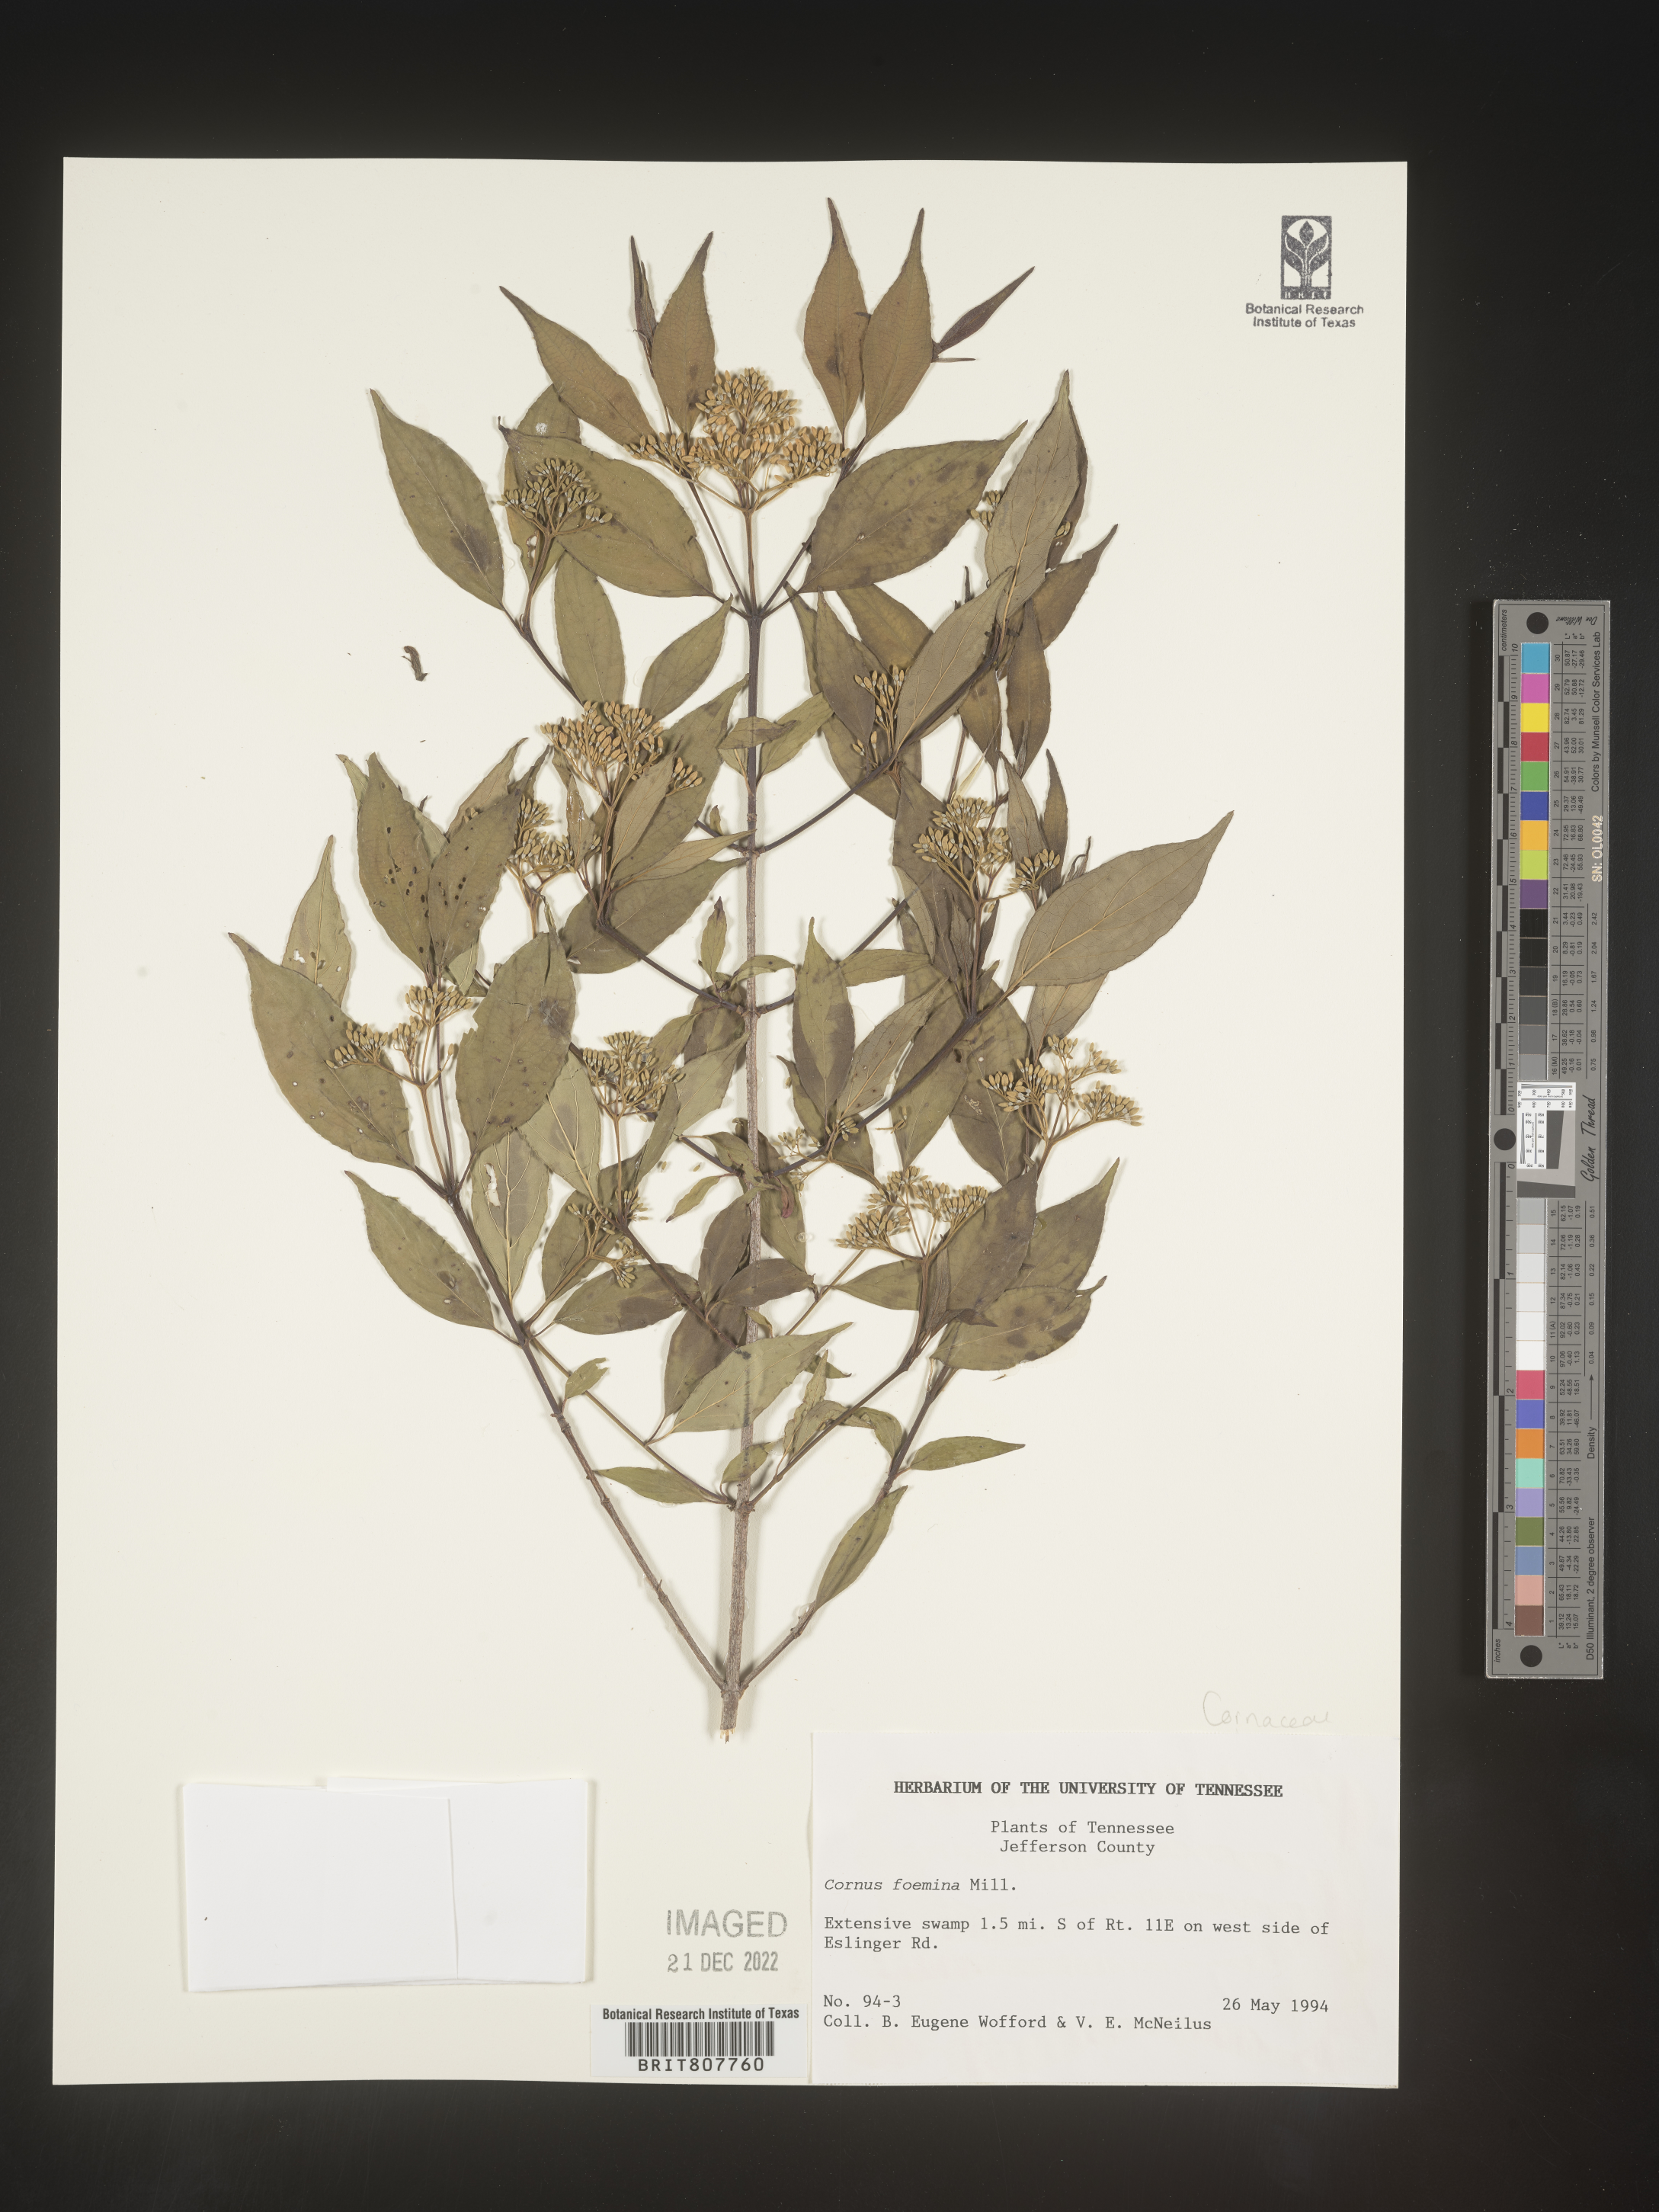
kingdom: Plantae
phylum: Tracheophyta
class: Magnoliopsida
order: Cornales
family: Cornaceae
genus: Cornus
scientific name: Cornus foemina
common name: Swamp dogwood
